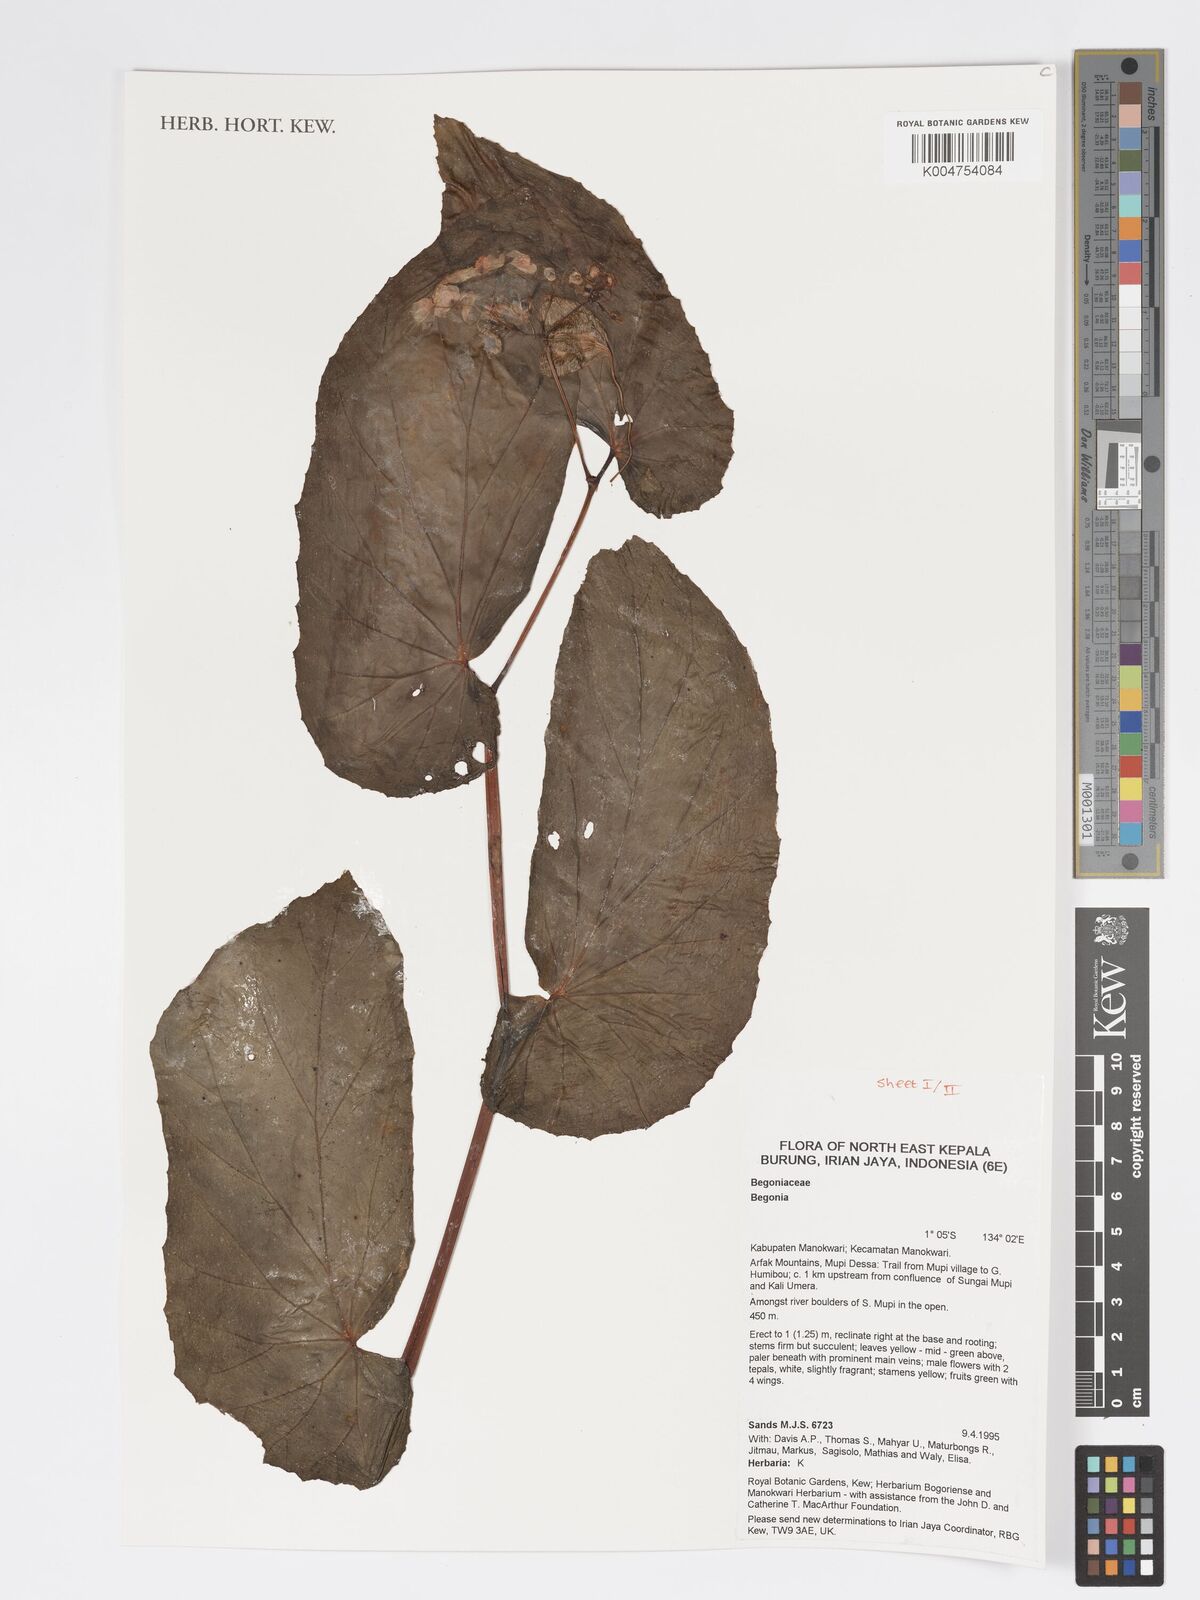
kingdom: Plantae
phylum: Tracheophyta
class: Magnoliopsida
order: Cucurbitales
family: Begoniaceae
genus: Begonia
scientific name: Begonia
